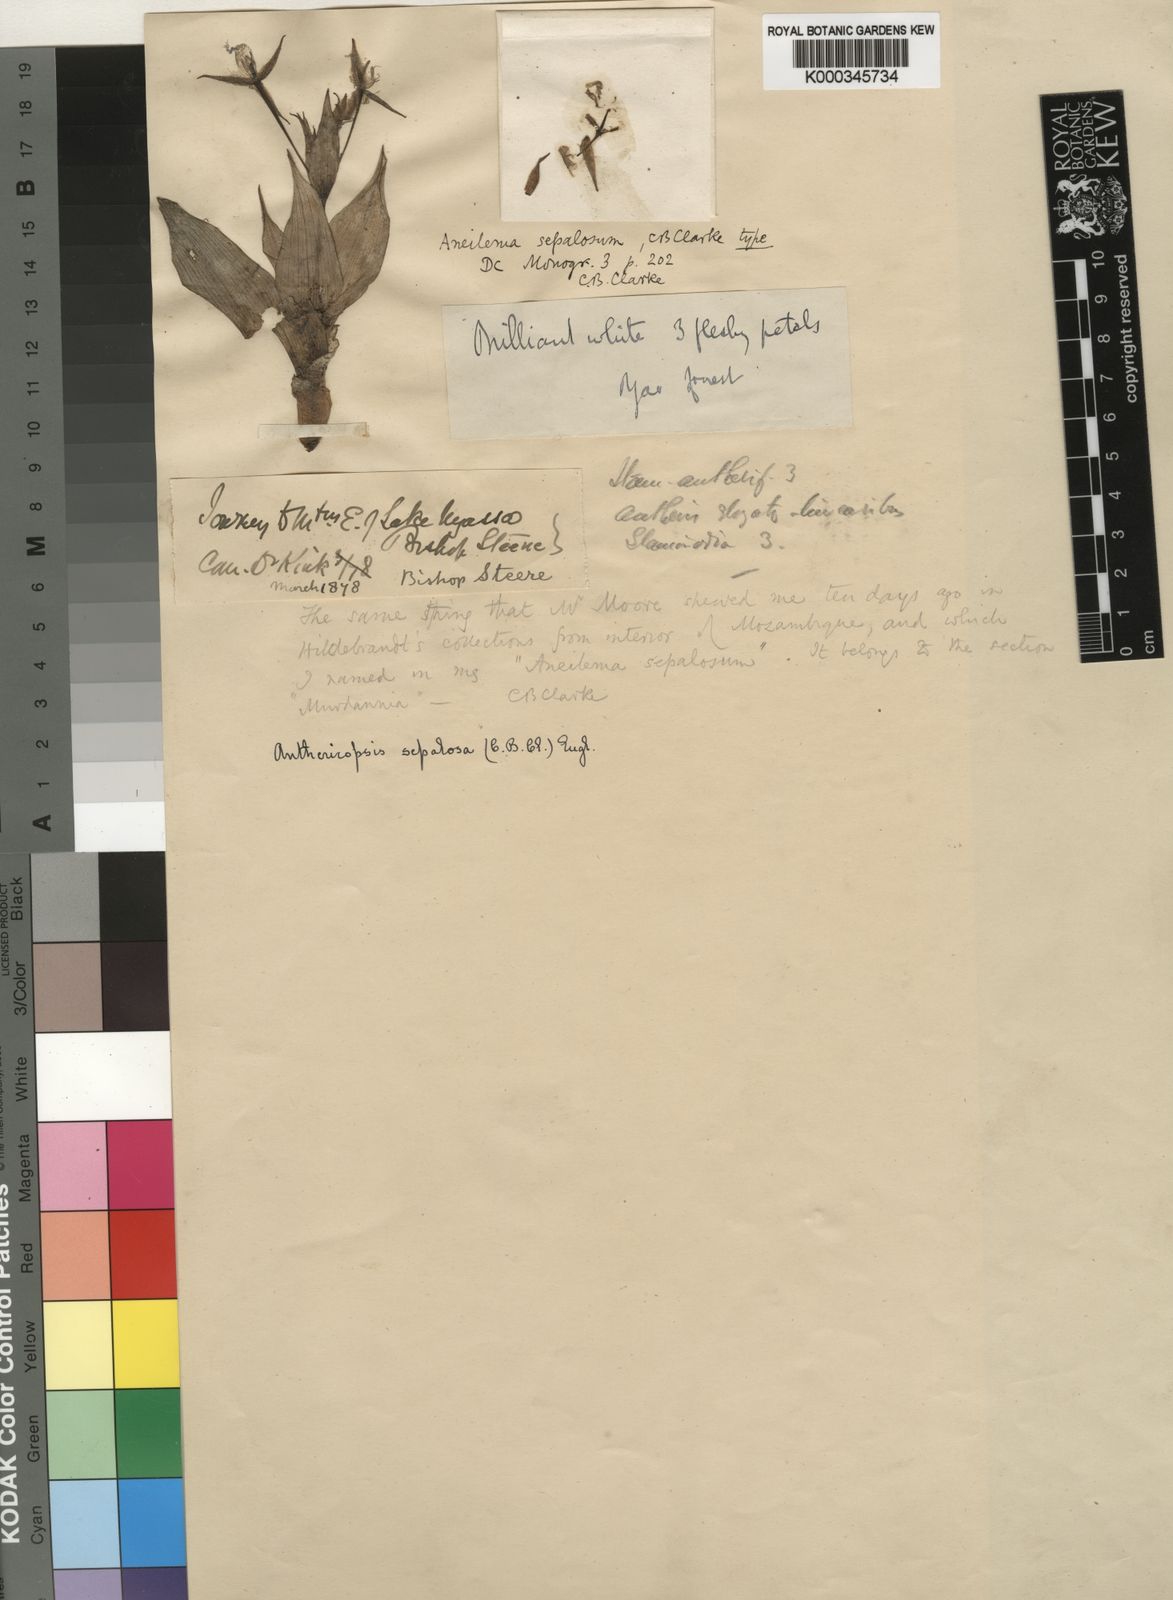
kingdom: Plantae
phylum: Tracheophyta
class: Liliopsida
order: Commelinales
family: Commelinaceae
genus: Anthericopsis
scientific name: Anthericopsis sepalosa
